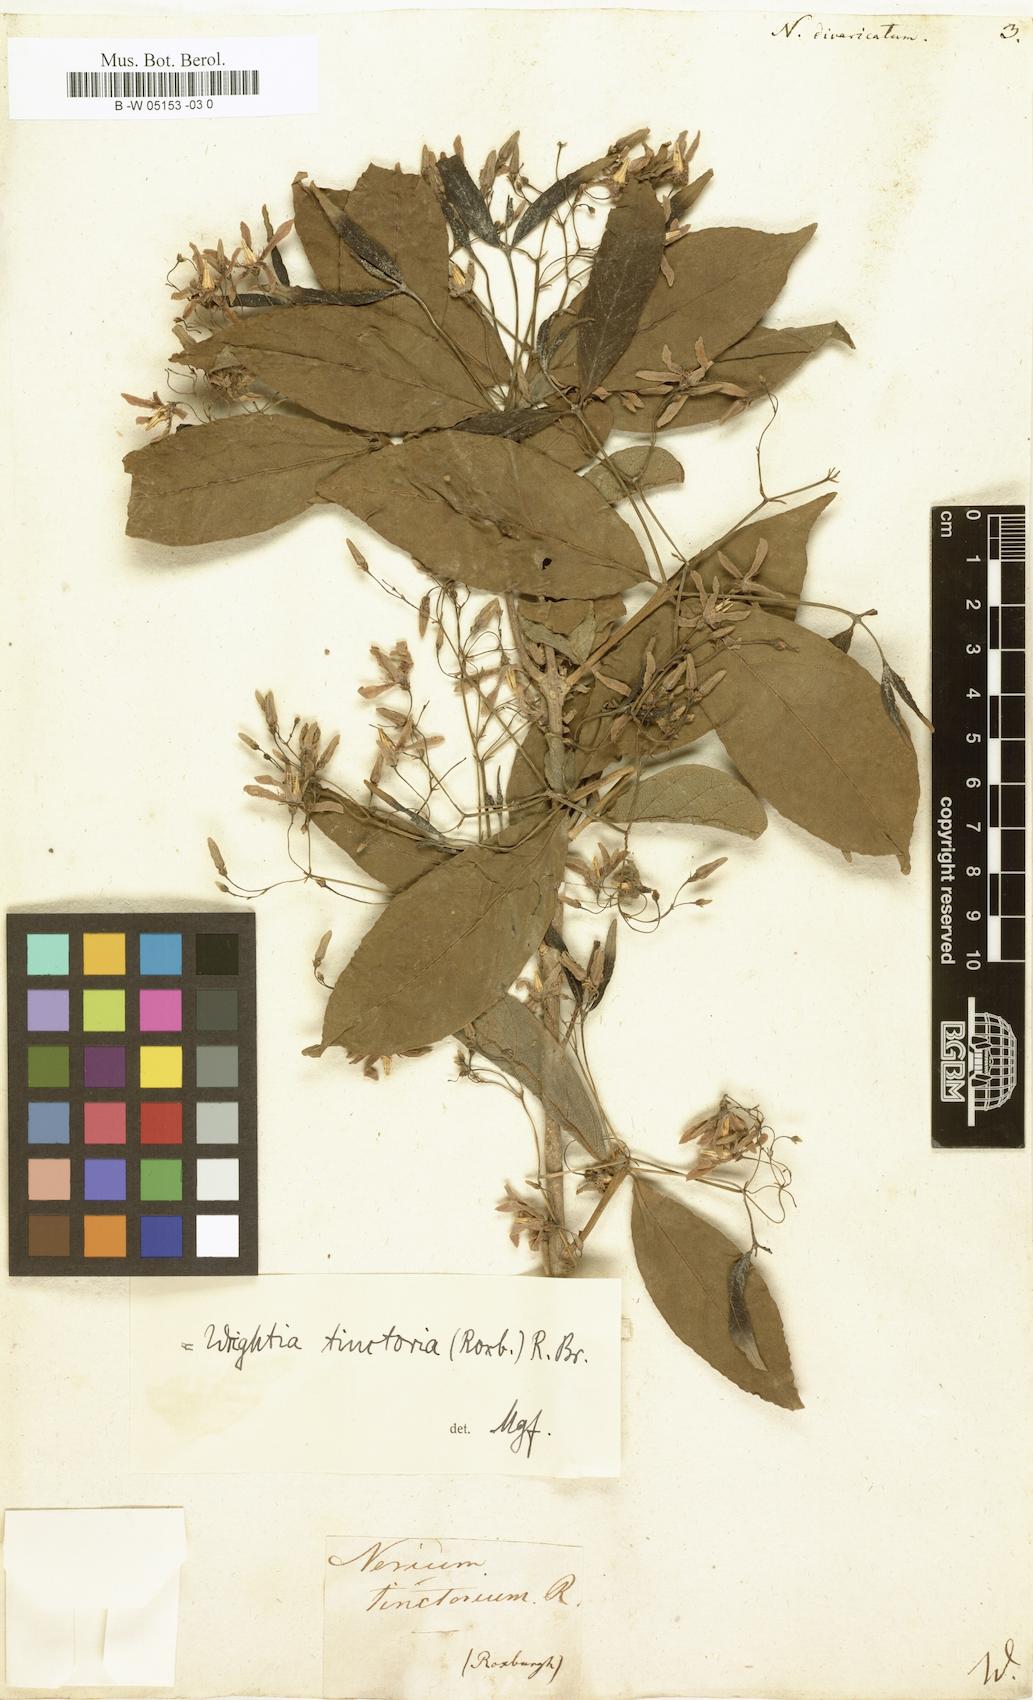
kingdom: Plantae
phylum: Tracheophyta
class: Magnoliopsida
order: Gentianales
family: Apocynaceae
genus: Tabernaemontana
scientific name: Tabernaemontana divaricata
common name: Pinwheelflower
